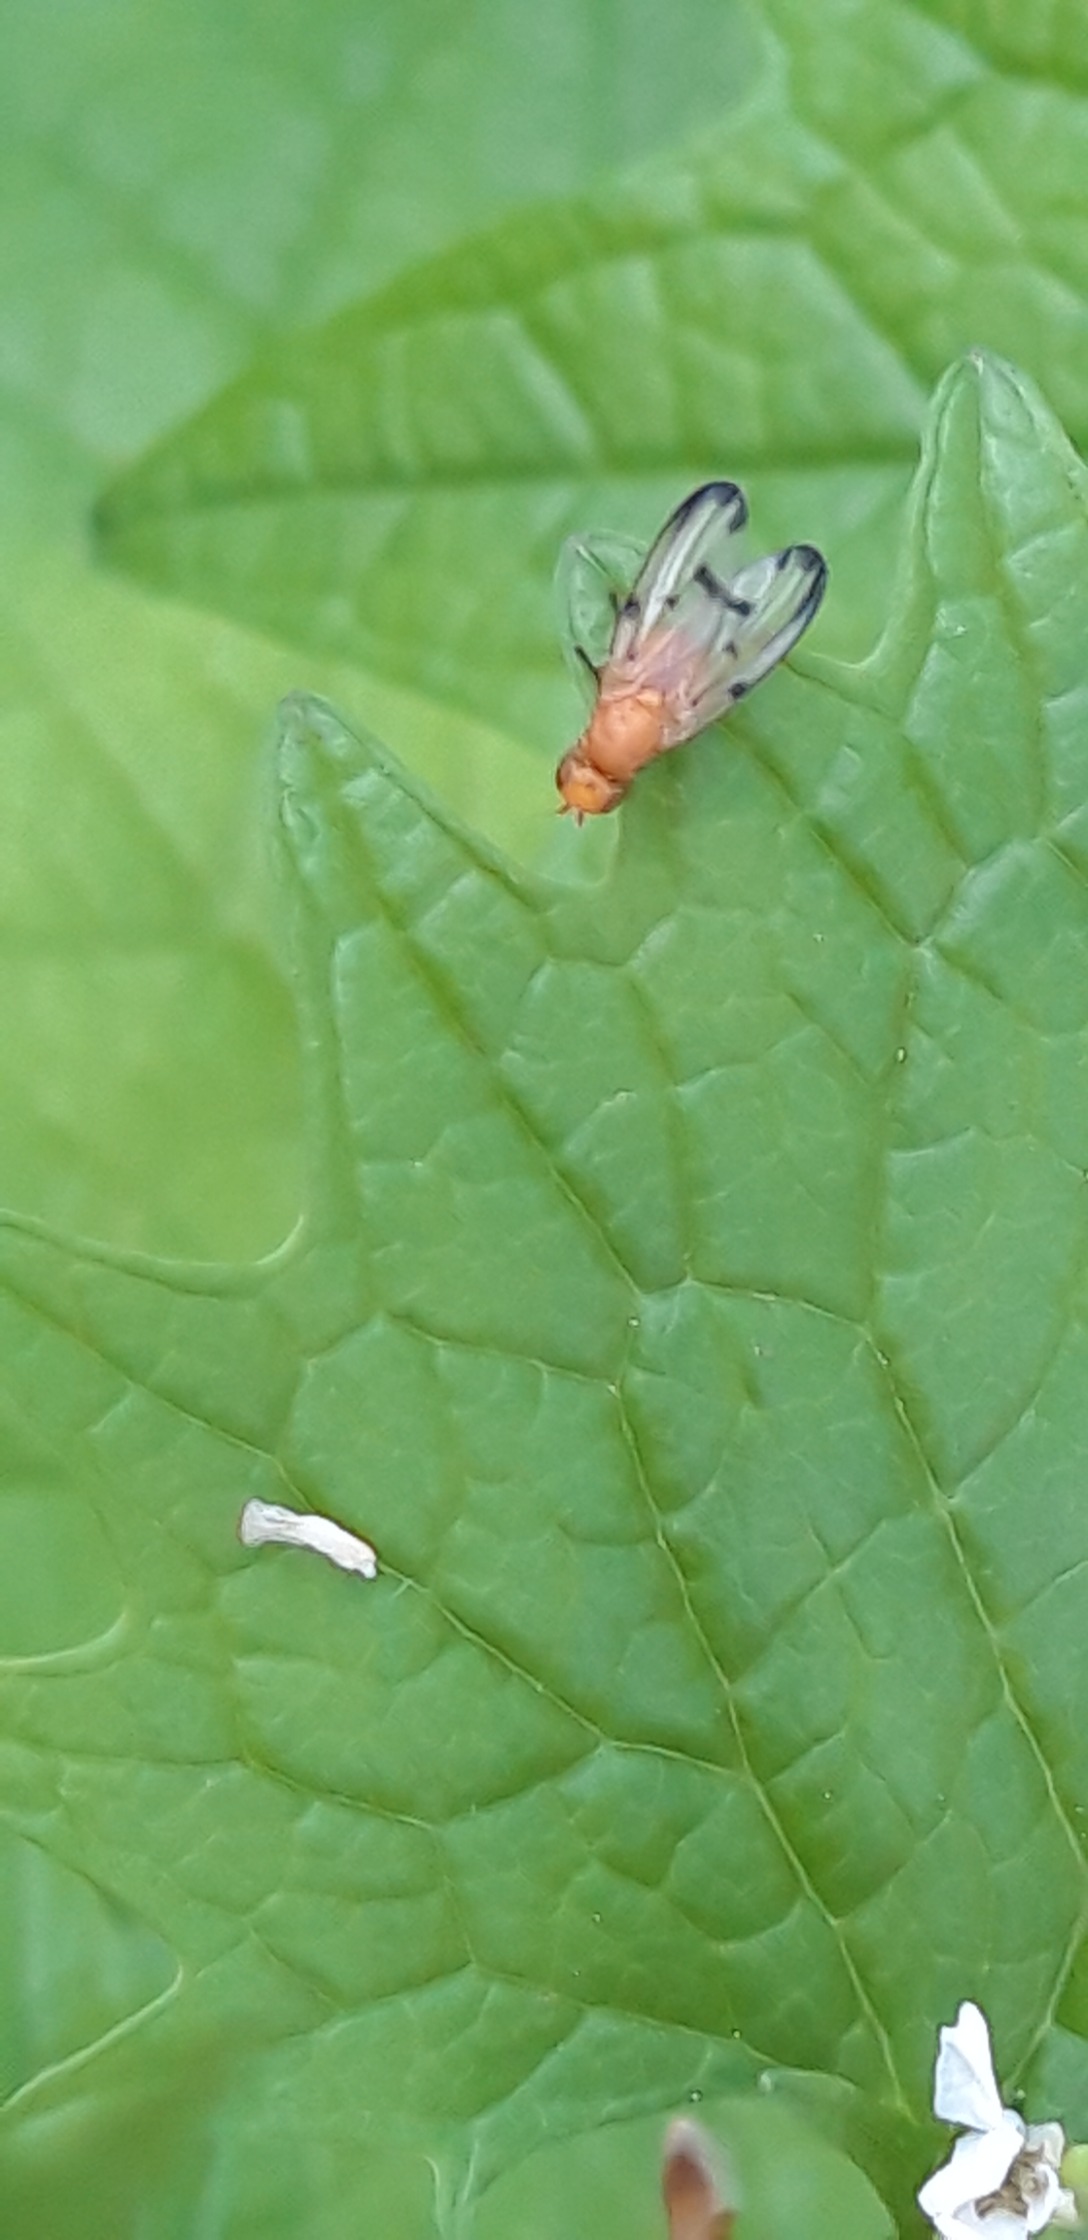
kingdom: Animalia
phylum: Arthropoda
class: Insecta
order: Diptera
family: Pallopteridae
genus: Palloptera
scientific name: Palloptera quinquemaculata
